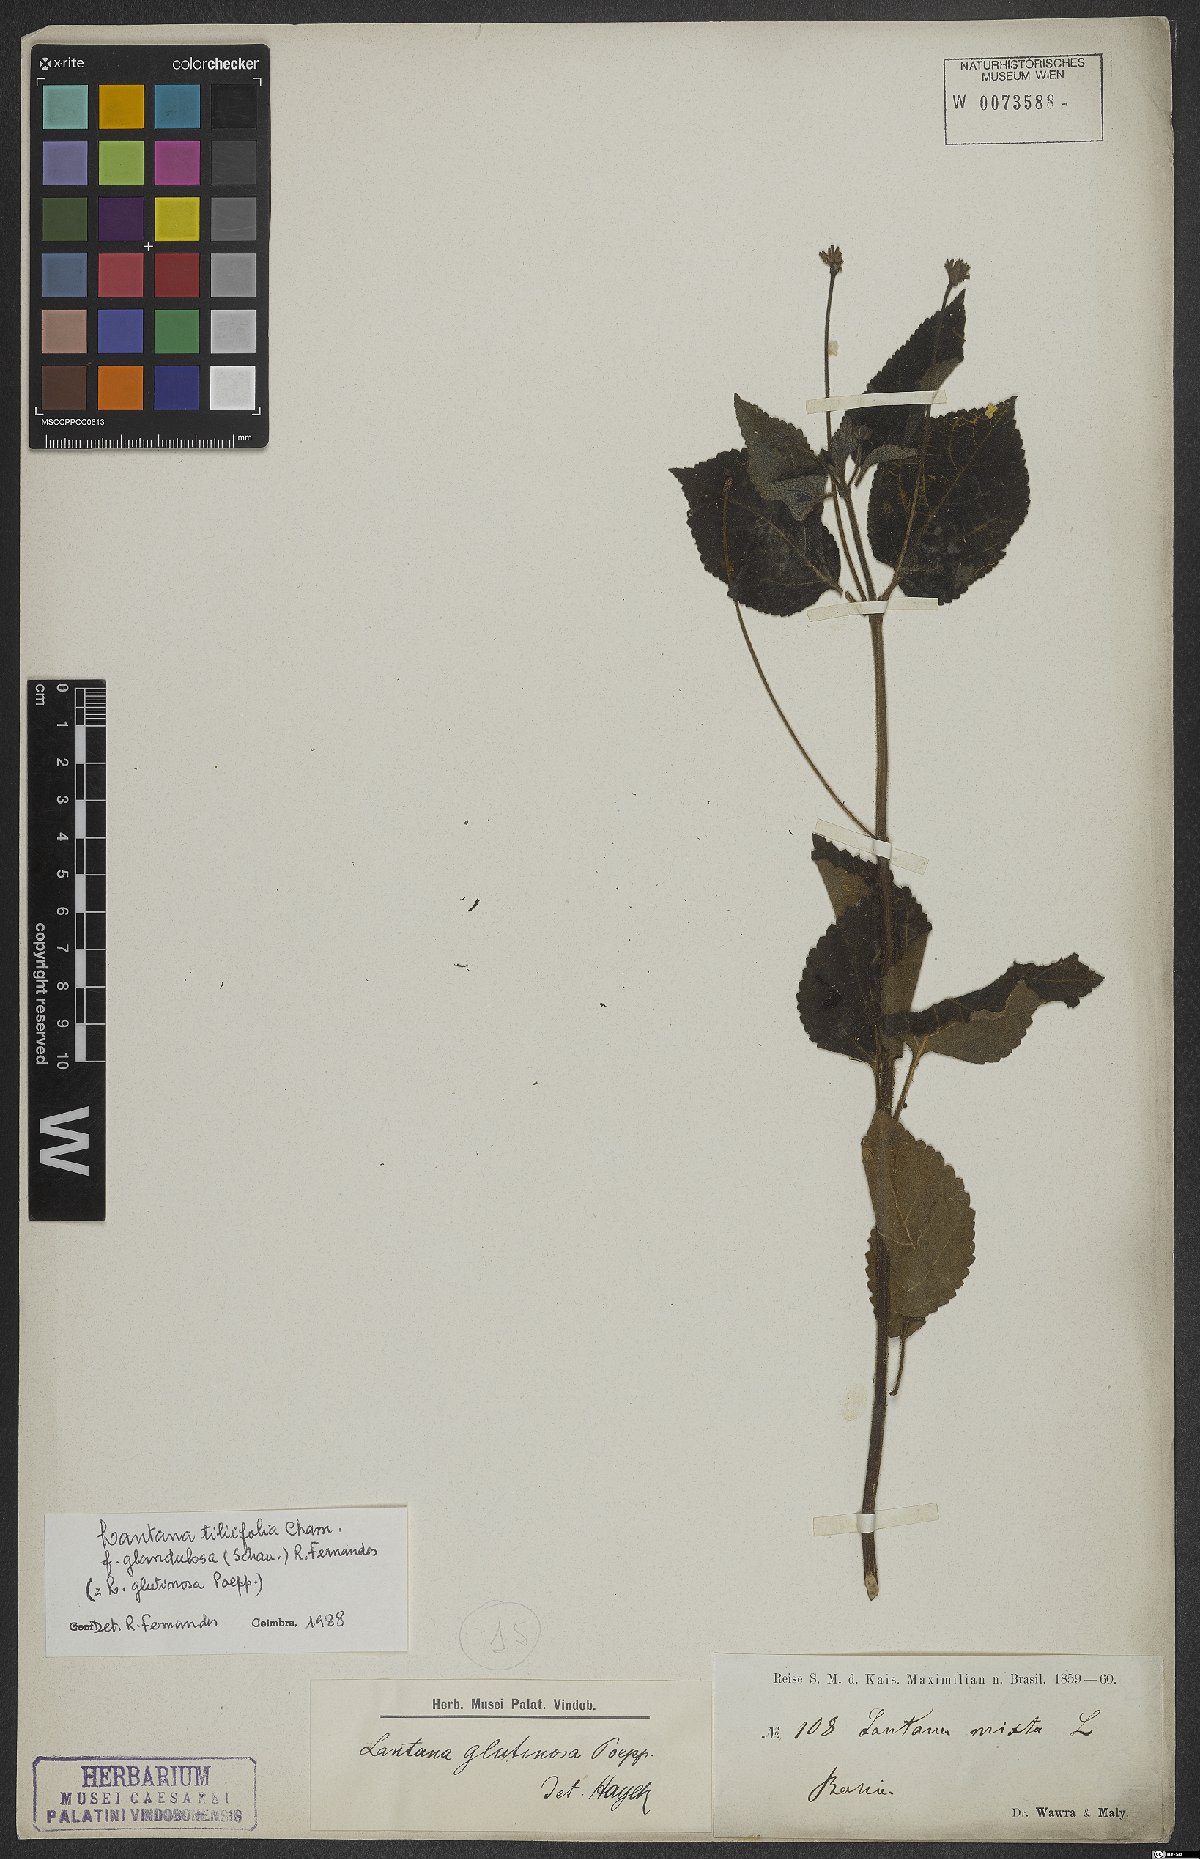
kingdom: Plantae
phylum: Tracheophyta
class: Magnoliopsida
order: Lamiales
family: Verbenaceae
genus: Lantana
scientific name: Lantana horrida
